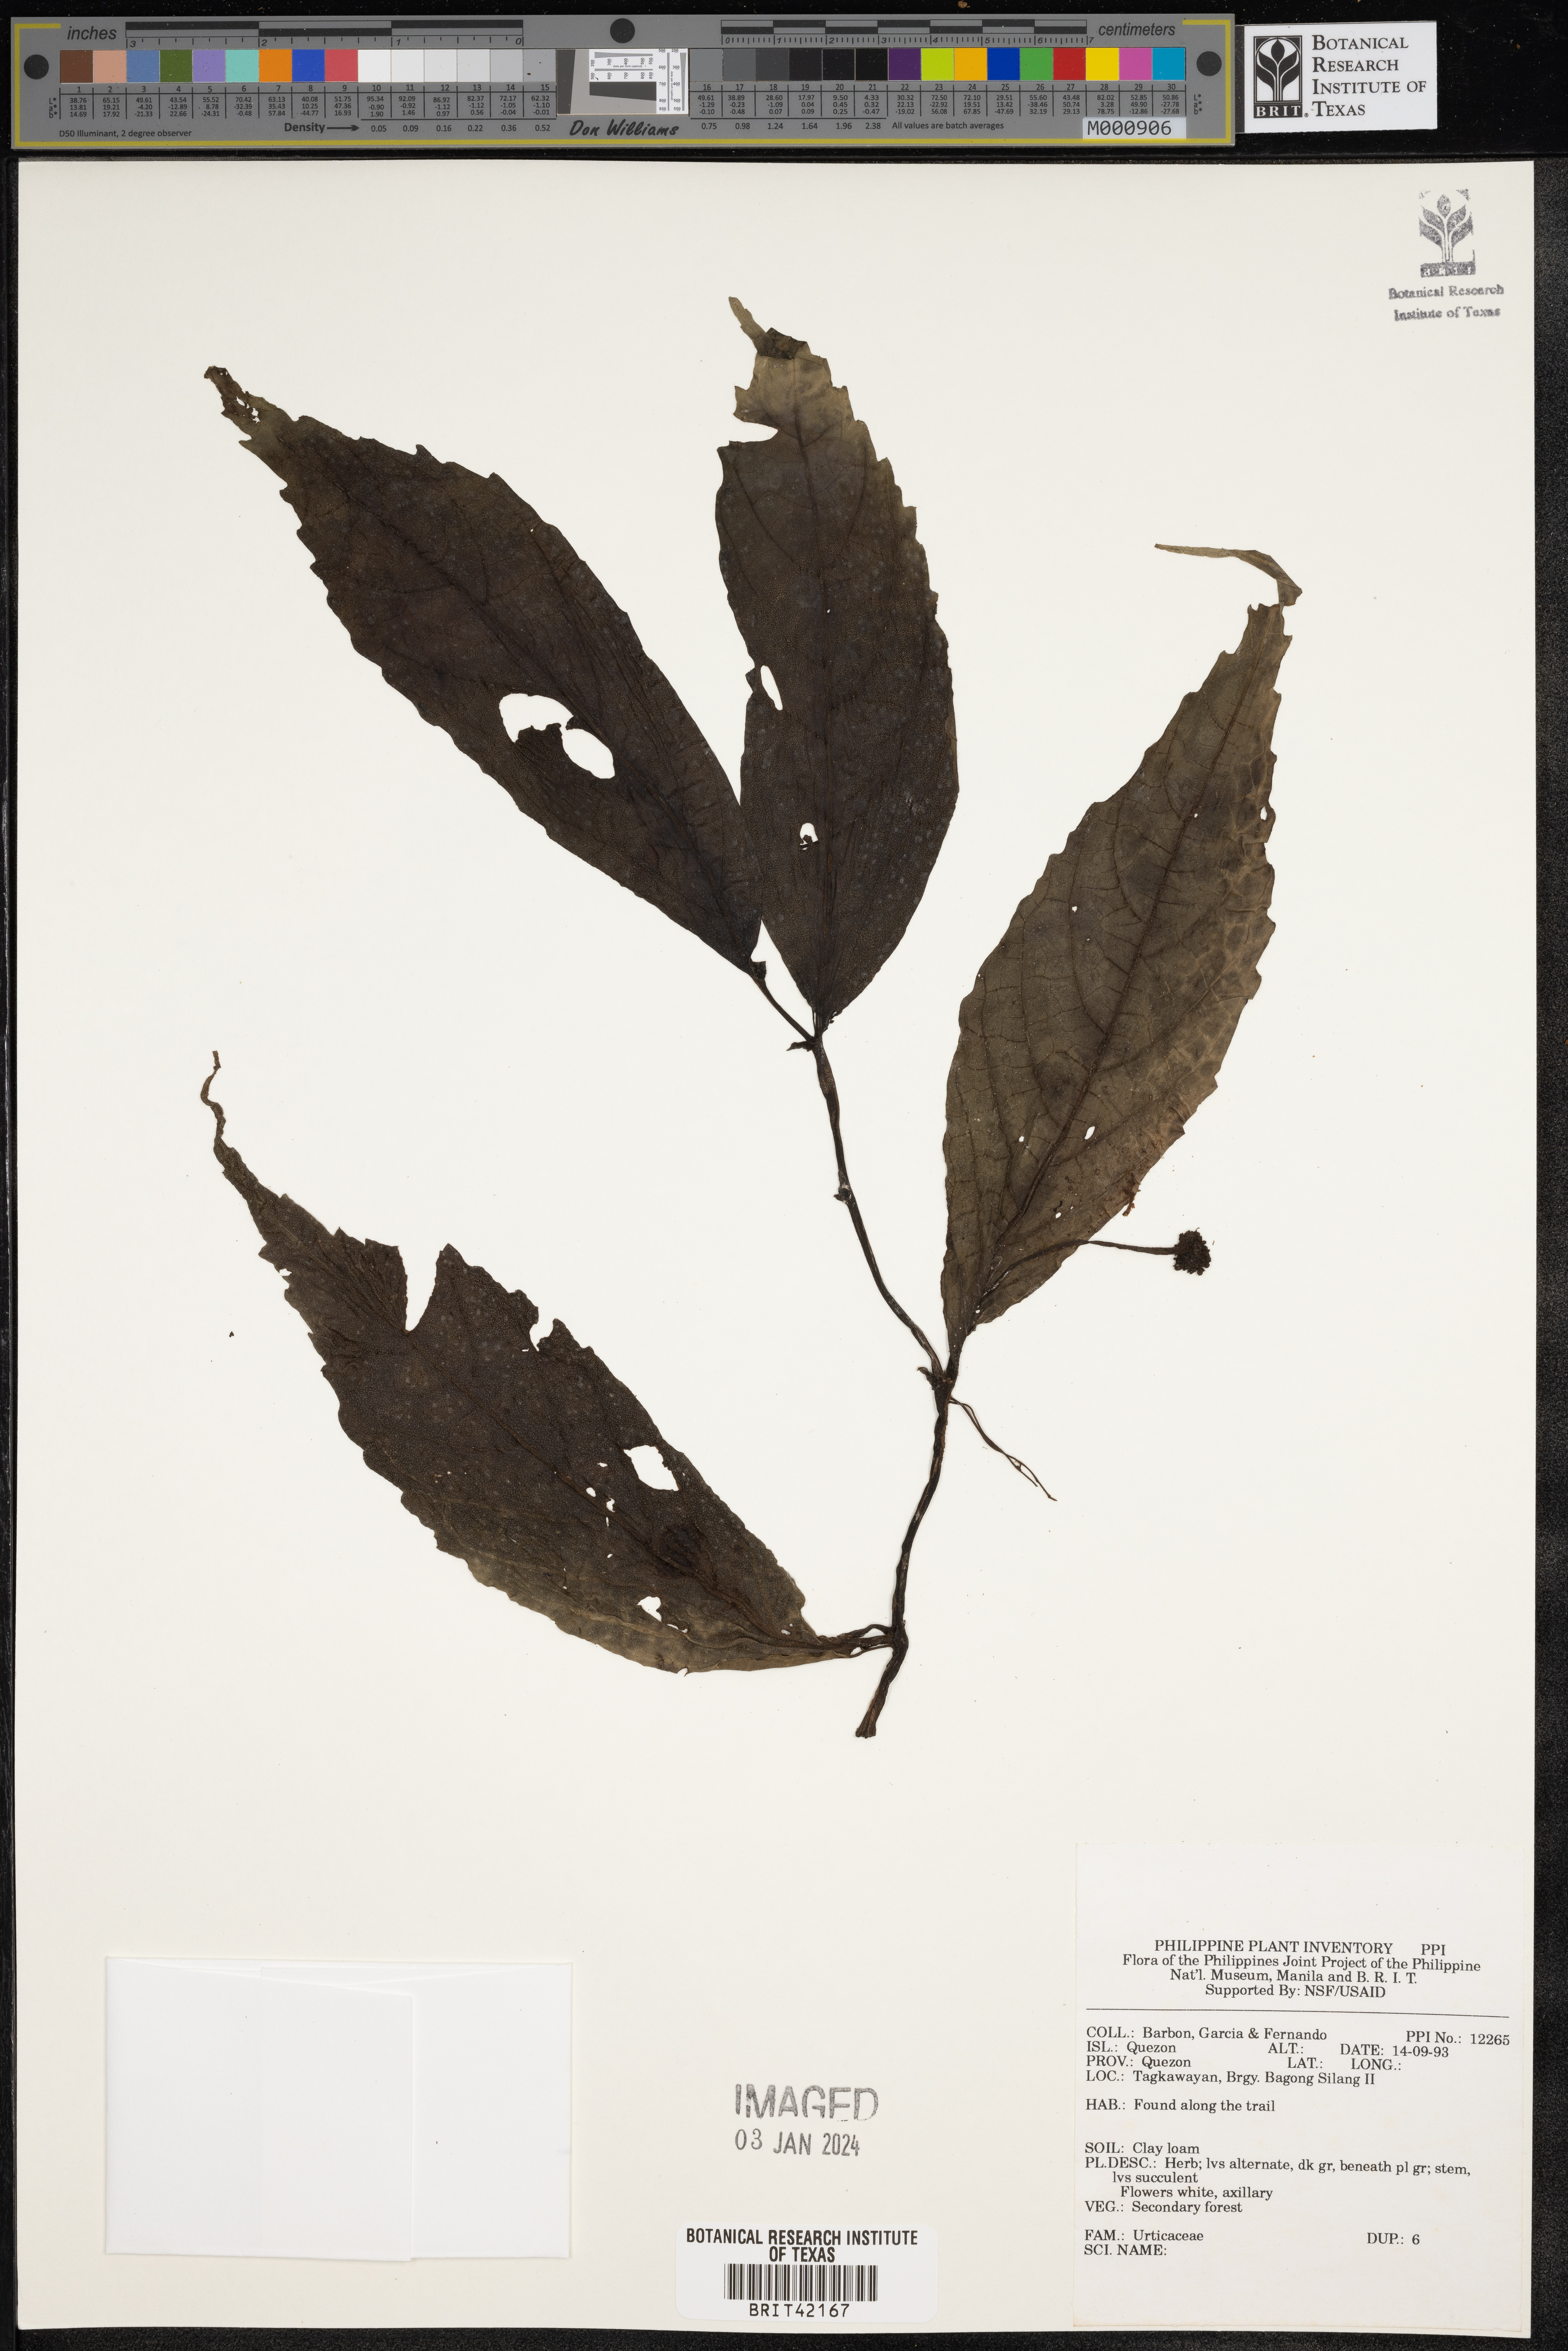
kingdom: Plantae
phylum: Tracheophyta
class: Magnoliopsida
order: Rosales
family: Urticaceae
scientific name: Urticaceae
